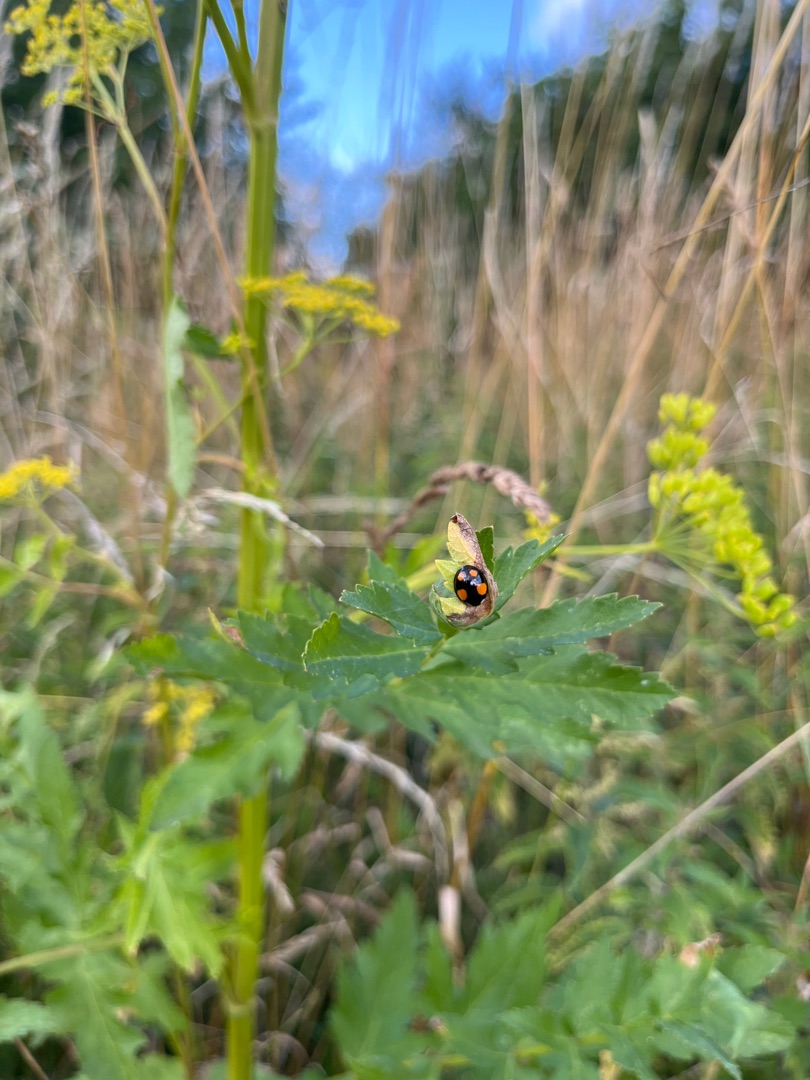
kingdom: Animalia
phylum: Arthropoda
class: Insecta
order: Coleoptera
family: Coccinellidae
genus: Harmonia
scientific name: Harmonia axyridis
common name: Harlekinmariehøne
